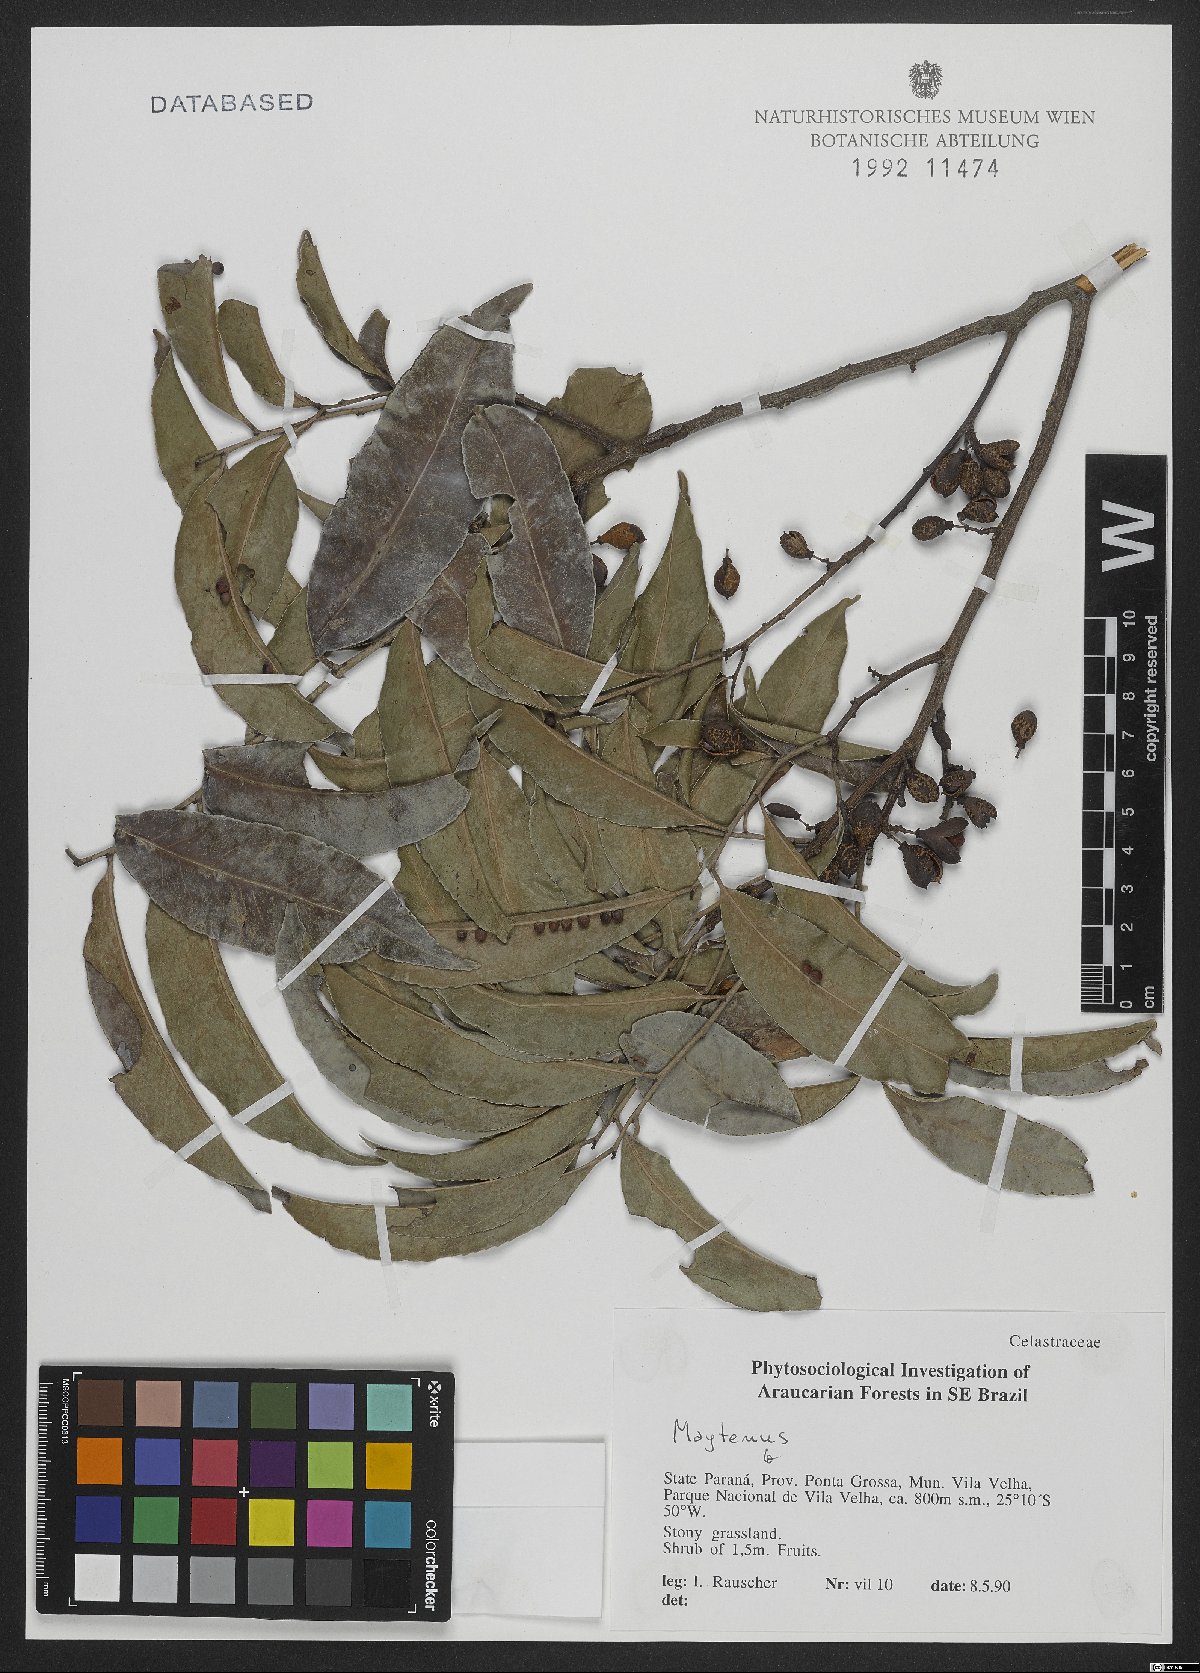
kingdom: Plantae
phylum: Tracheophyta
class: Magnoliopsida
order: Celastrales
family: Celastraceae
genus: Maytenus
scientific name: Maytenus
